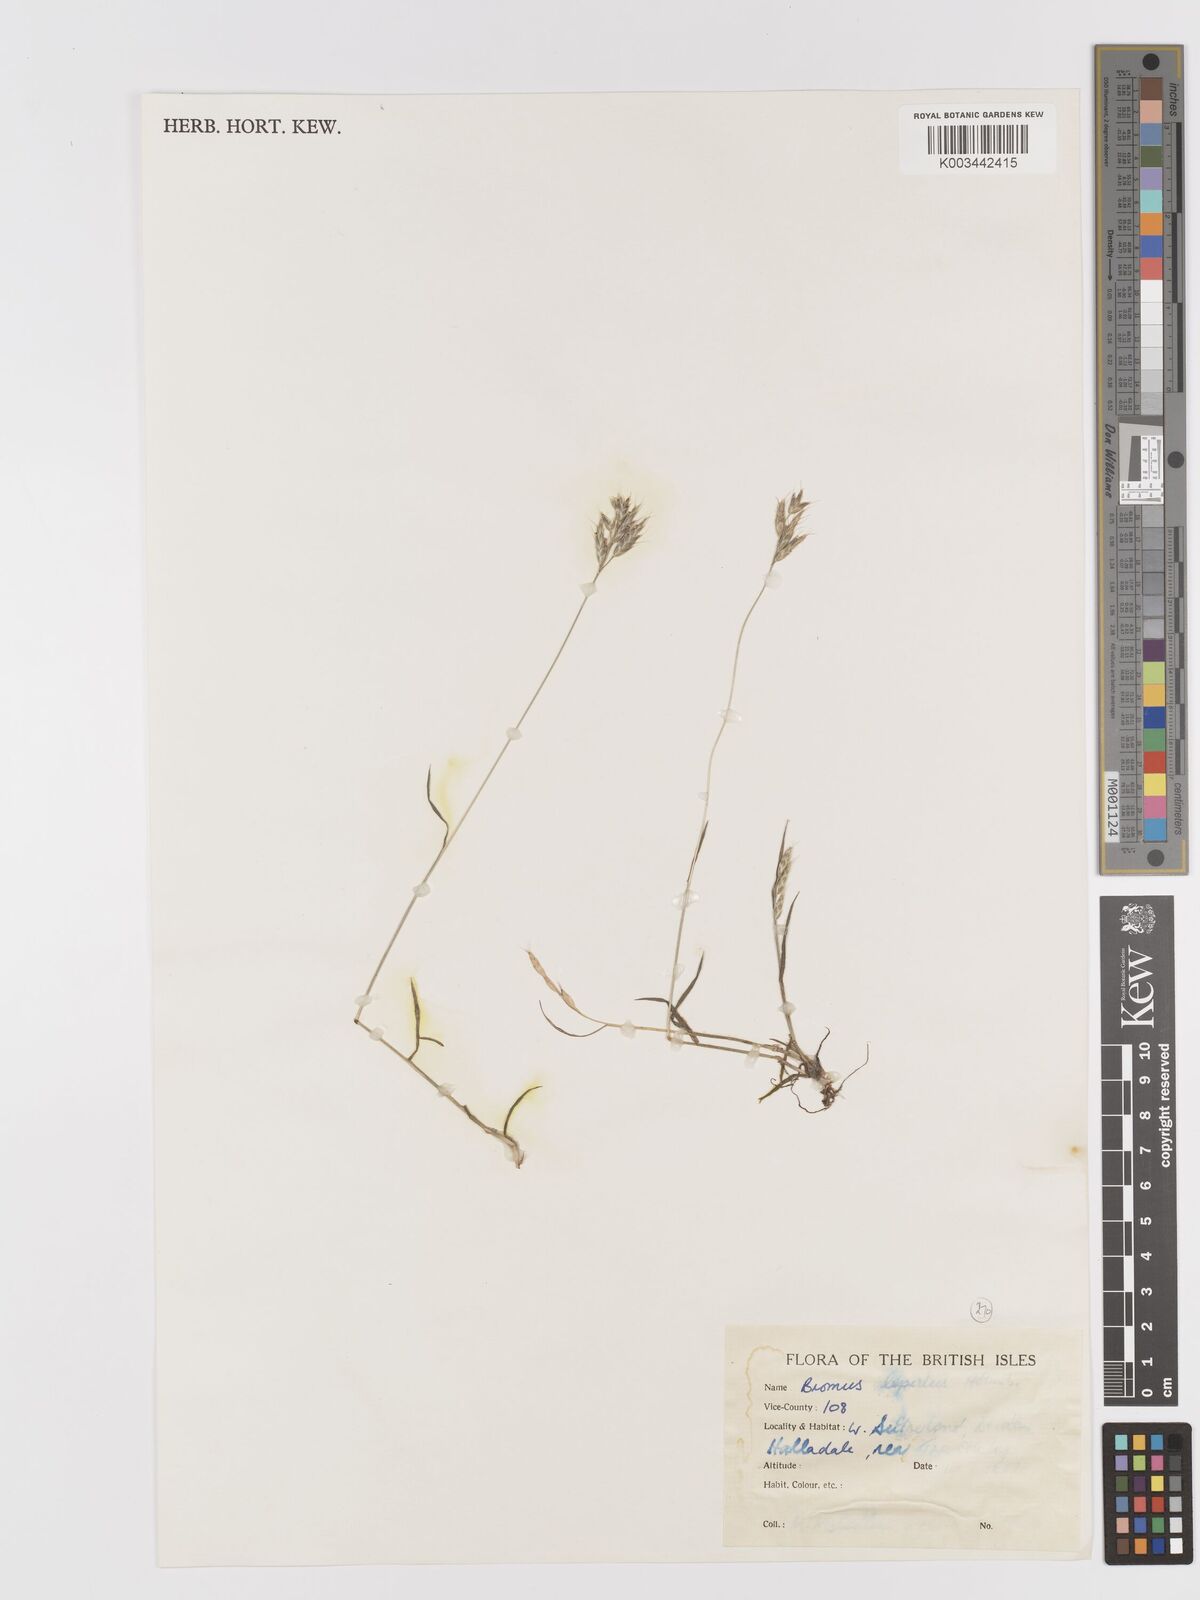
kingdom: Plantae
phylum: Tracheophyta
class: Liliopsida
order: Poales
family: Poaceae
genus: Bromus
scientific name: Bromus lepidus
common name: Slender soft-brome
